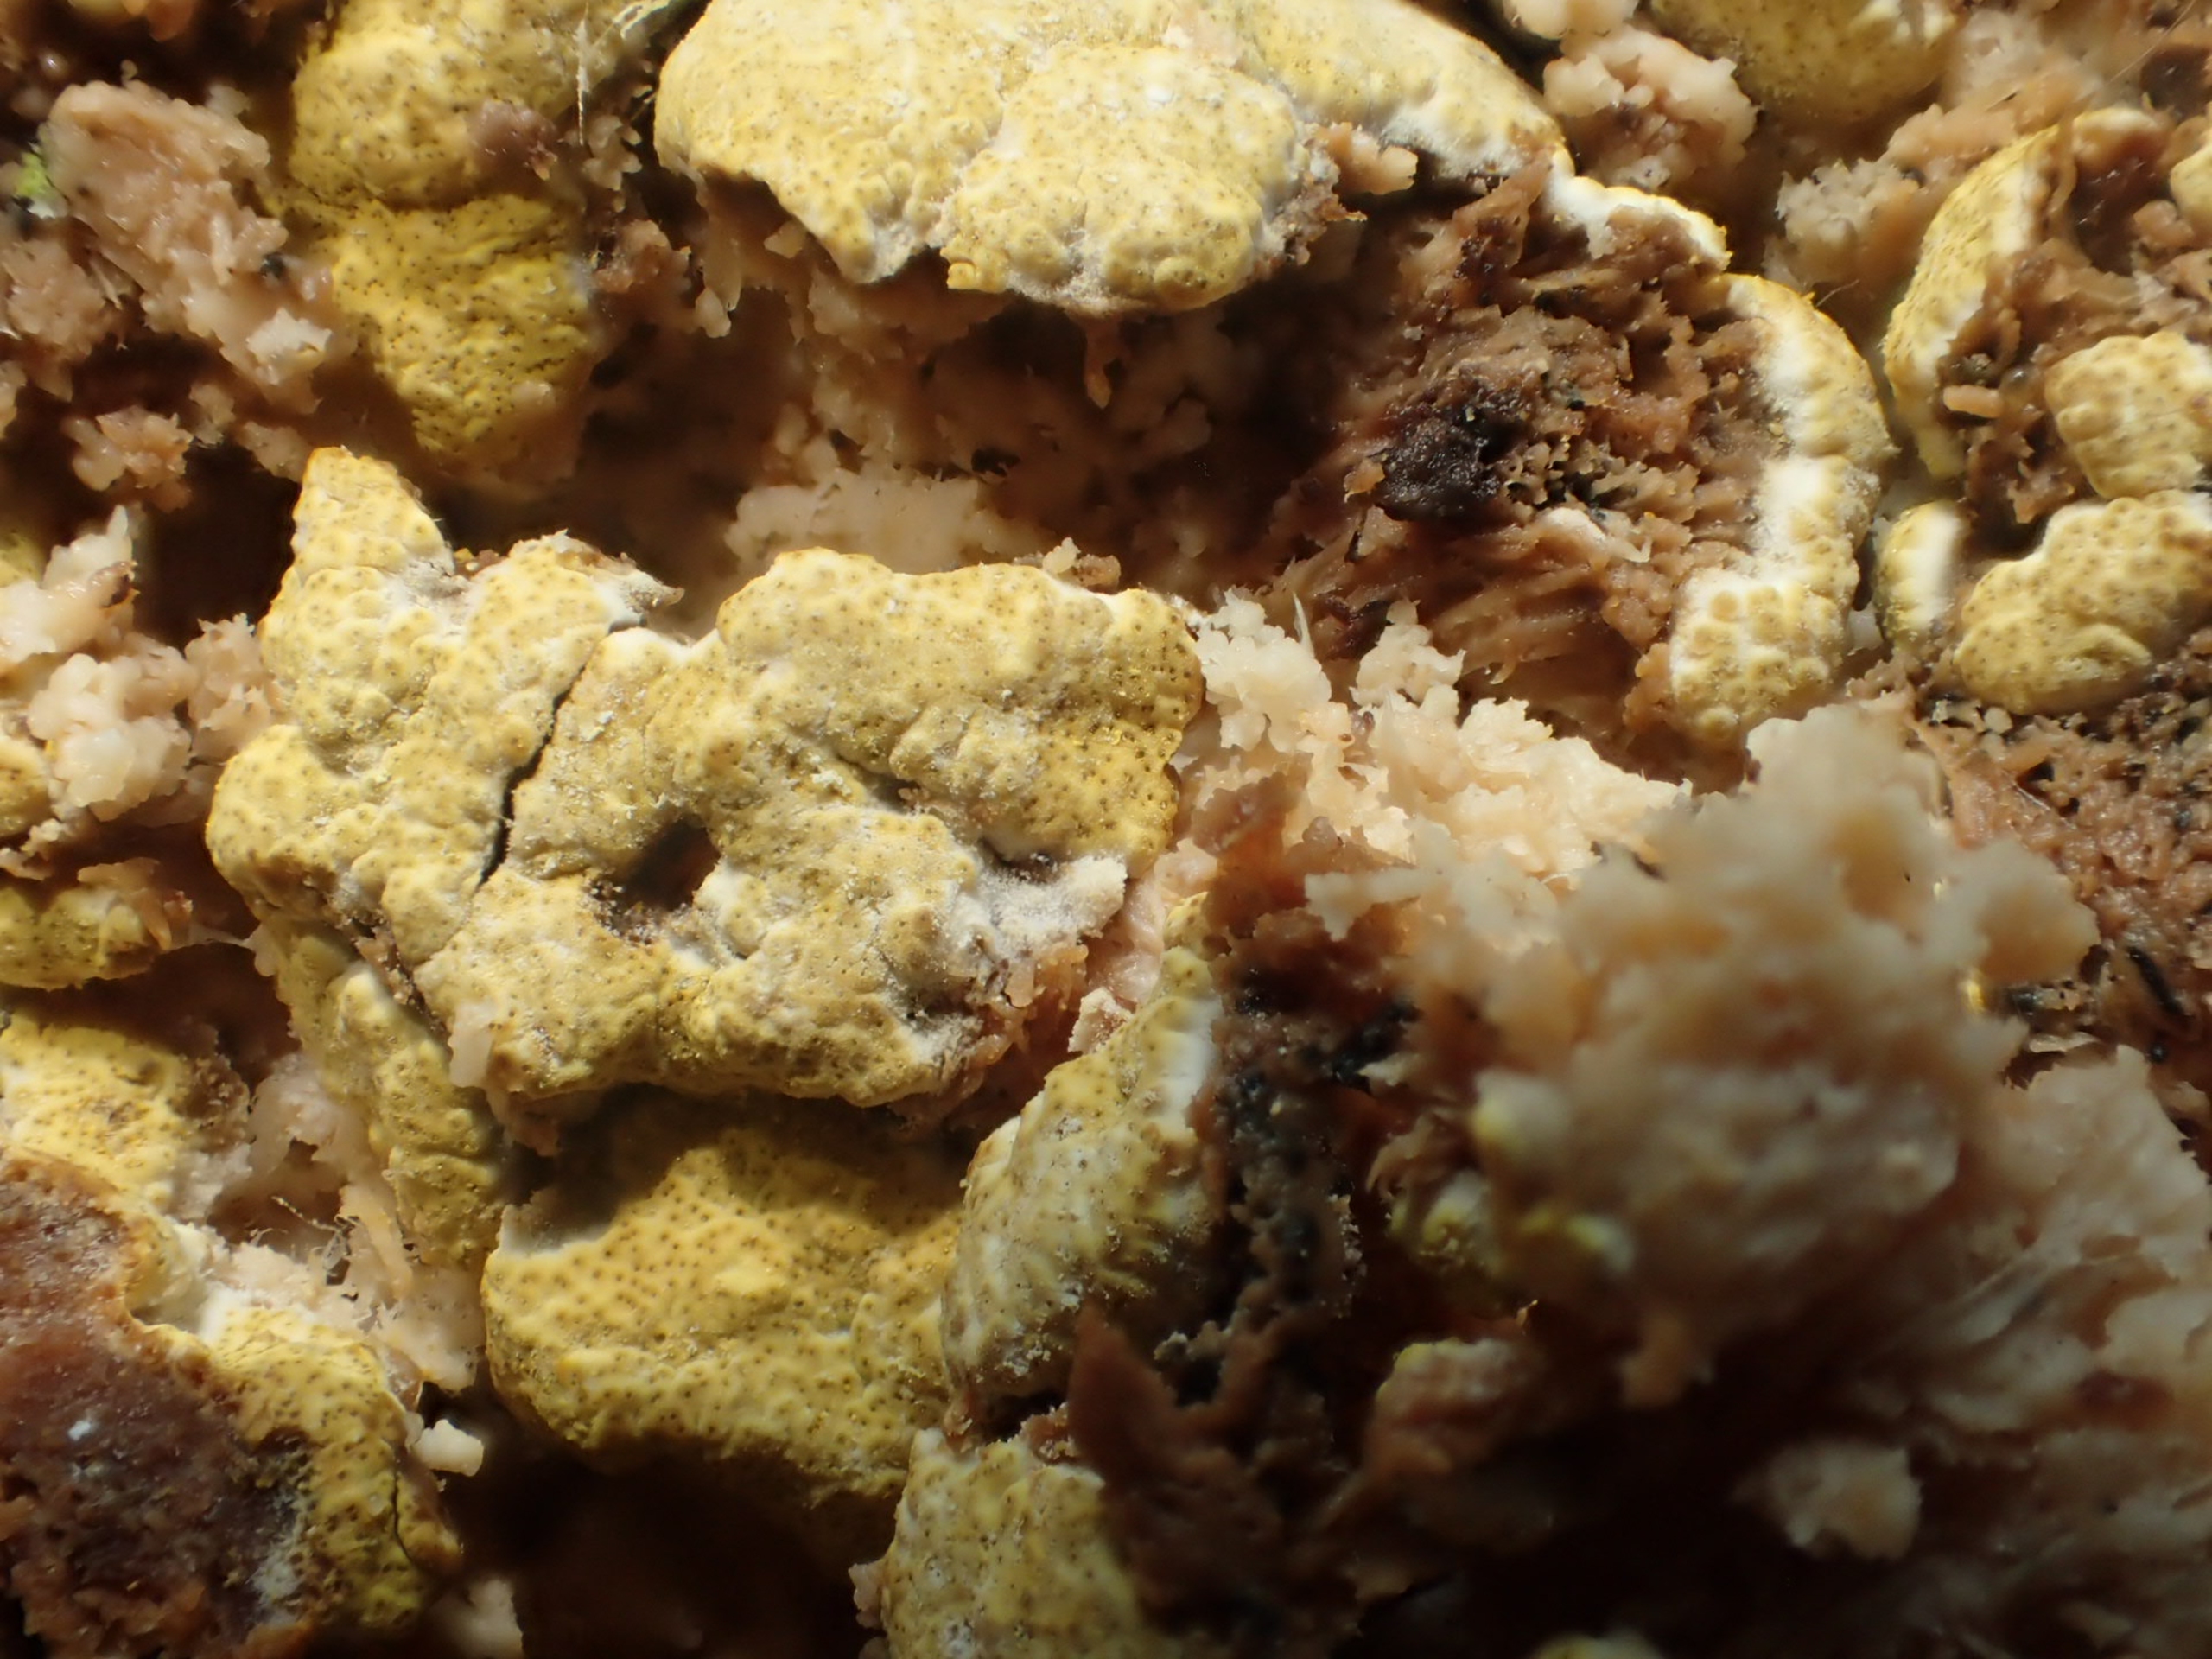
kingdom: Fungi
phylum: Ascomycota
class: Sordariomycetes
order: Hypocreales
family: Hypocreaceae
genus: Trichoderma
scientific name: Trichoderma pulvinatum
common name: Snyltende kødkerne
